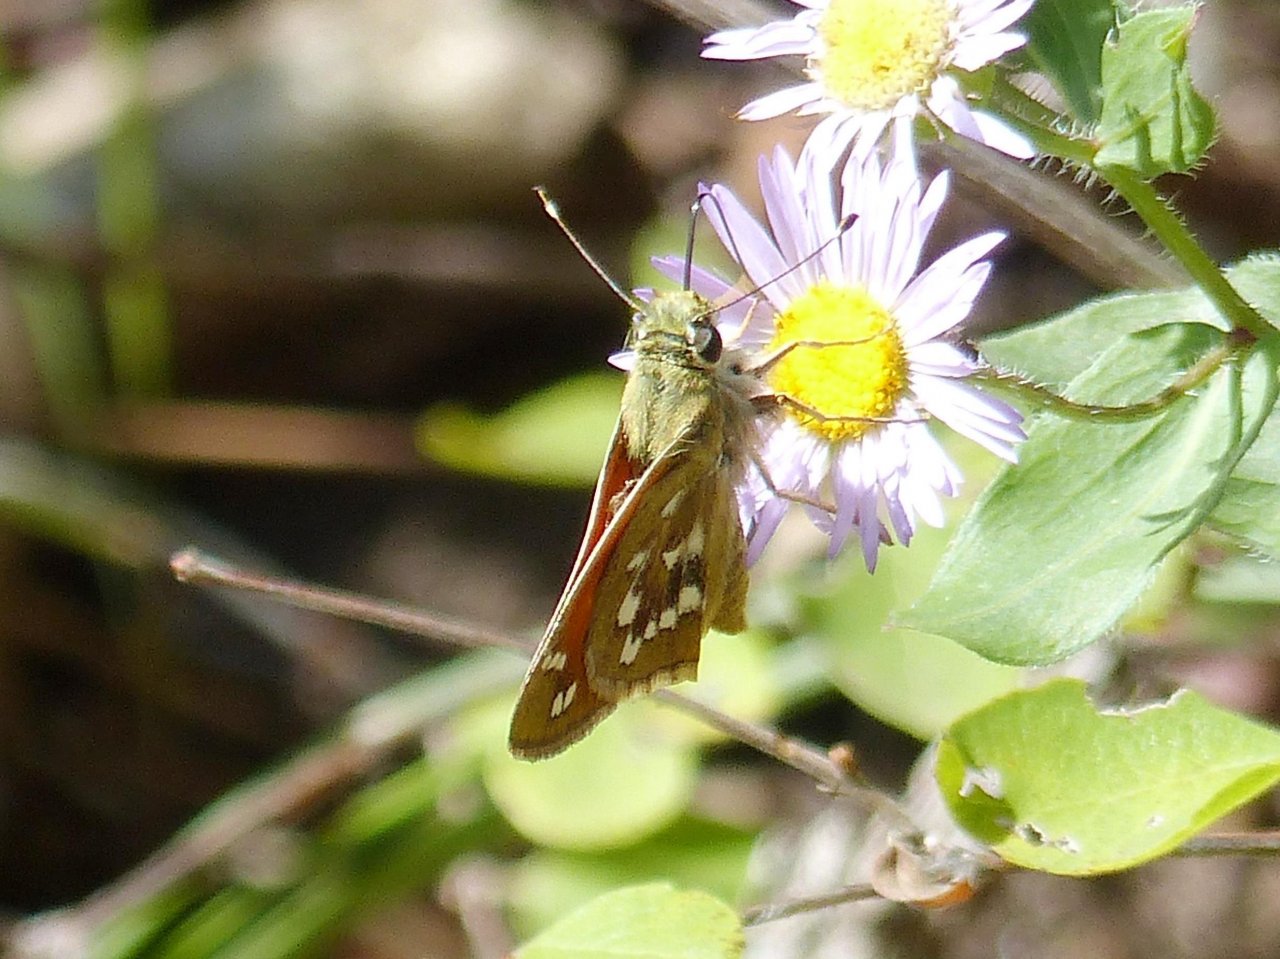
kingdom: Animalia
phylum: Arthropoda
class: Insecta
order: Lepidoptera
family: Hesperiidae
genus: Hesperia
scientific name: Hesperia woodgatei
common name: Apache Skipper
